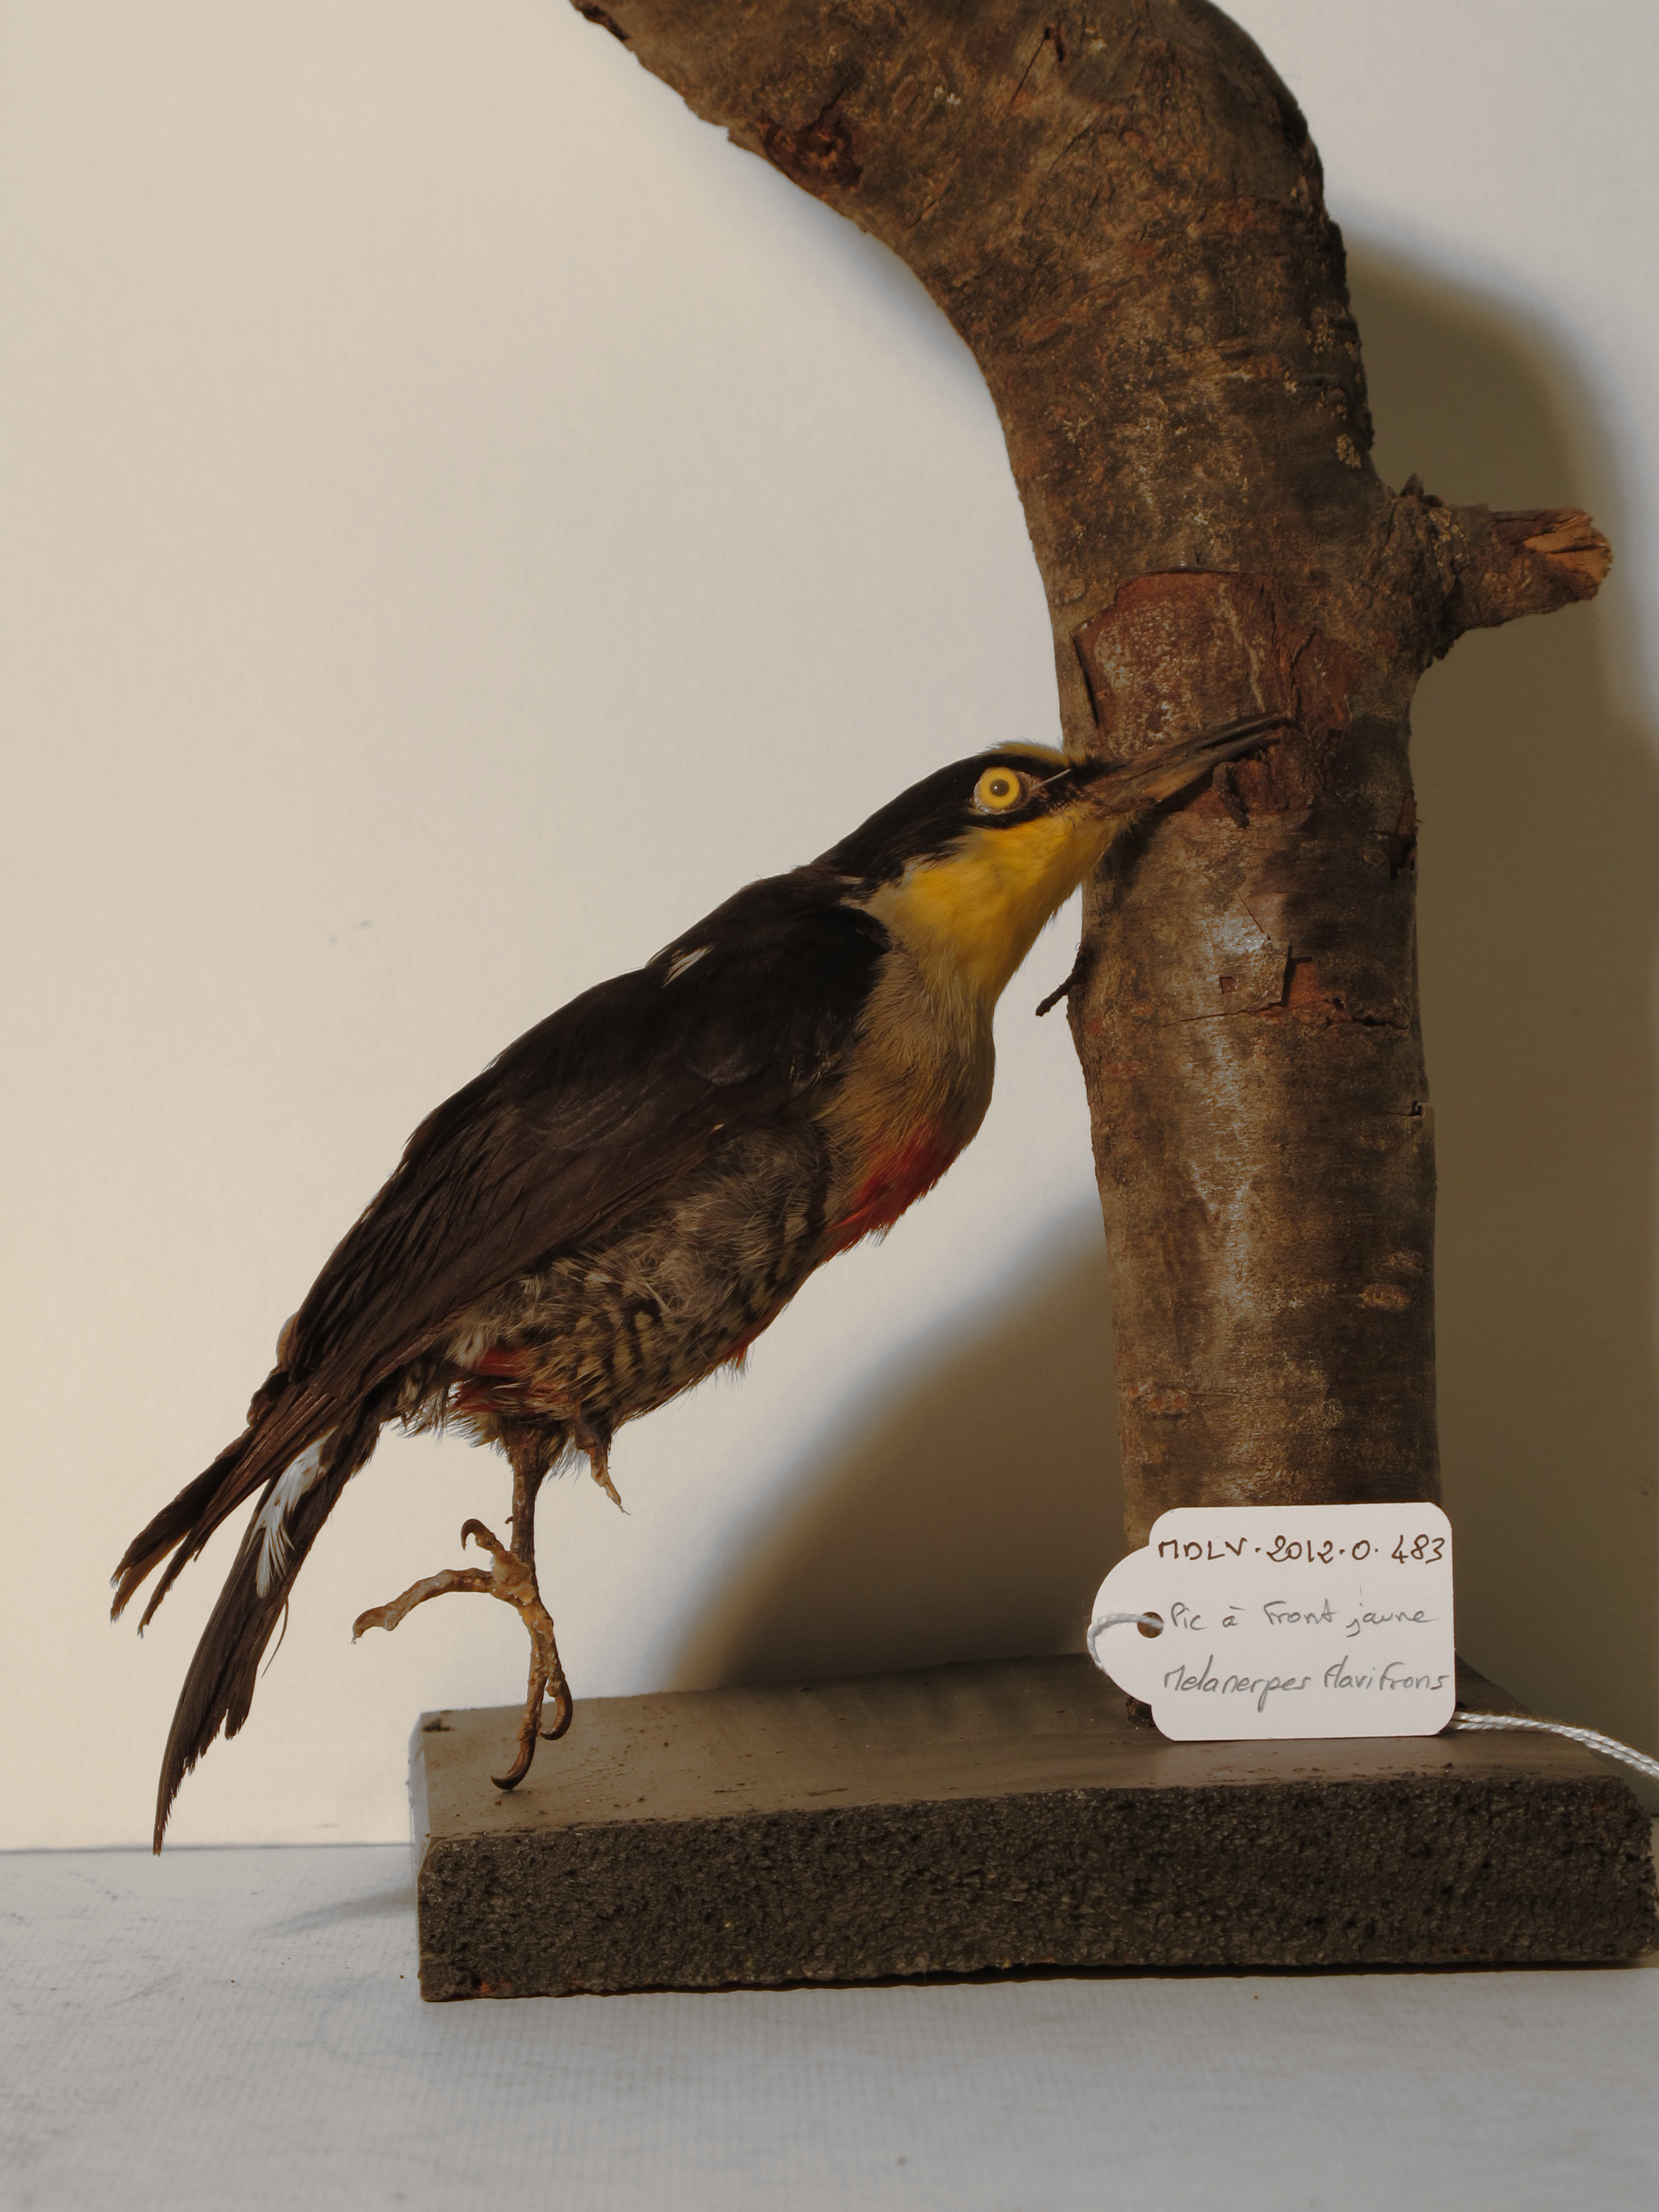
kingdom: Animalia
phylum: Chordata
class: Aves
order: Piciformes
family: Picidae
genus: Melanerpes
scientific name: Melanerpes flavifrons
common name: Yellow-fronted Woodpecker
